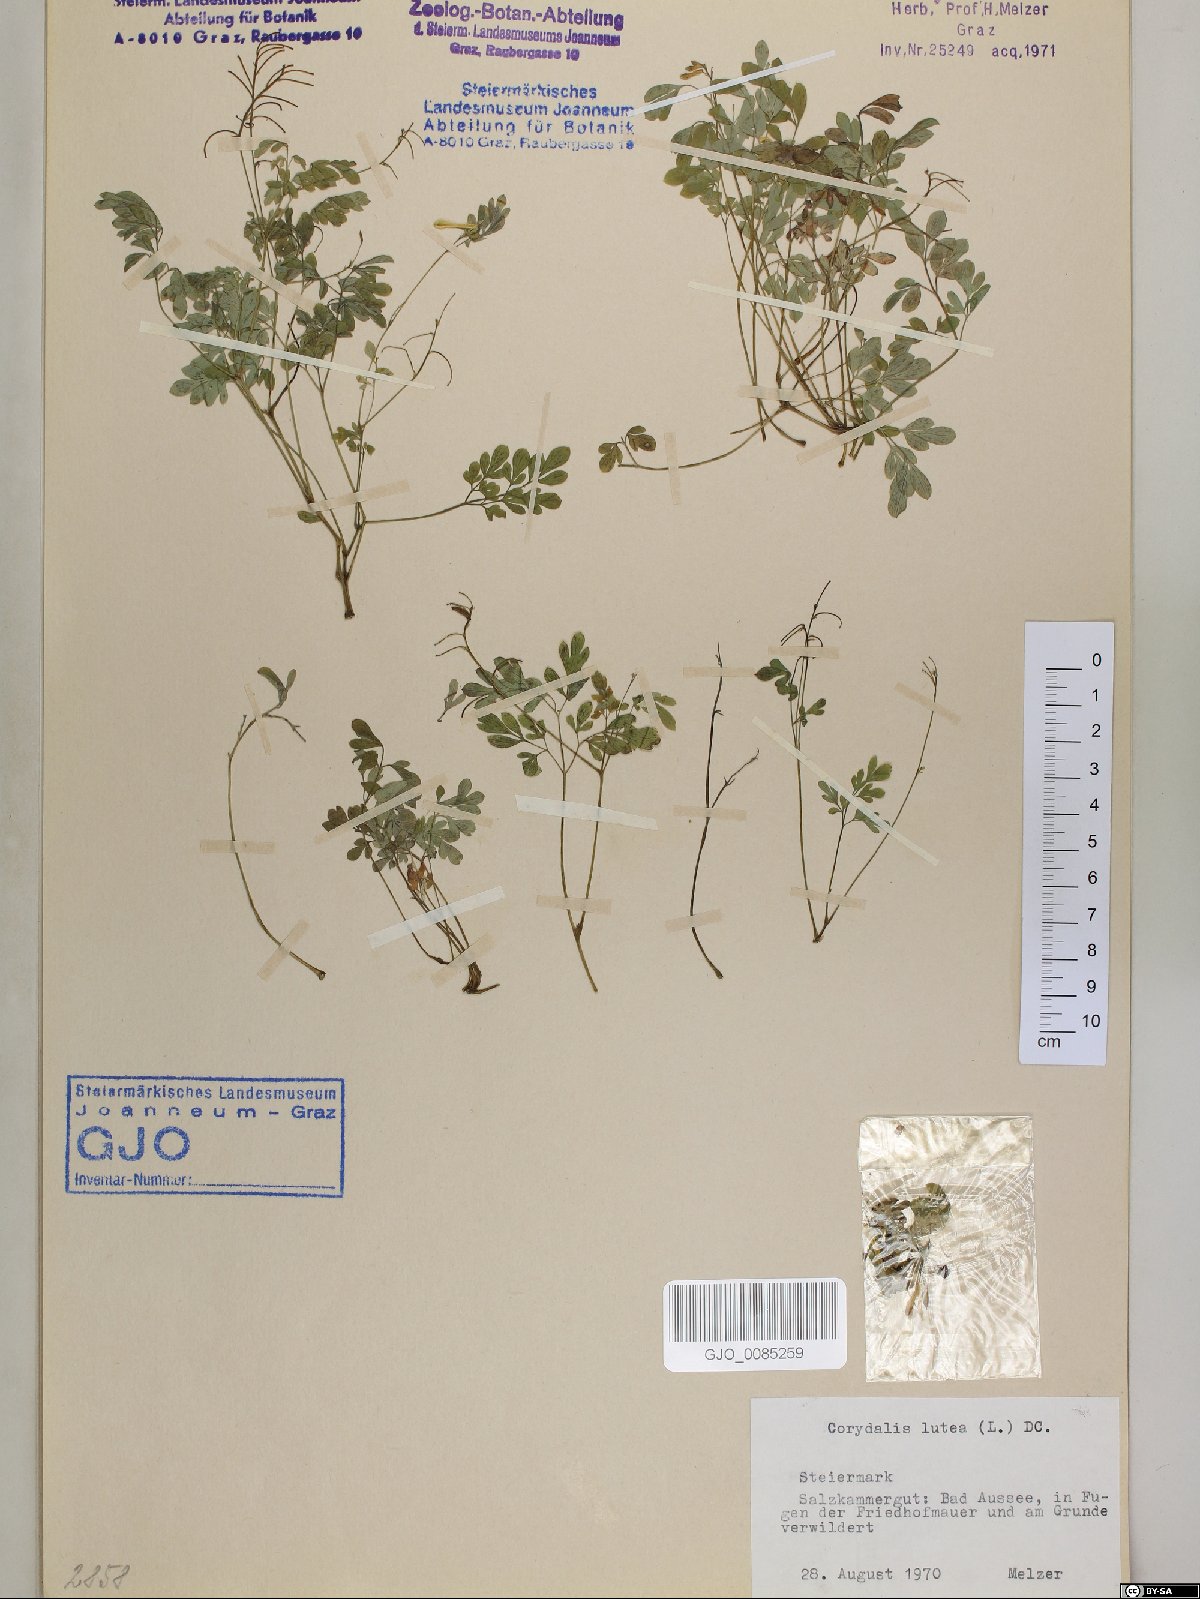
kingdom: Plantae
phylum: Tracheophyta
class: Magnoliopsida
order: Ranunculales
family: Papaveraceae
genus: Pseudofumaria
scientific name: Pseudofumaria lutea
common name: Yellow corydalis
